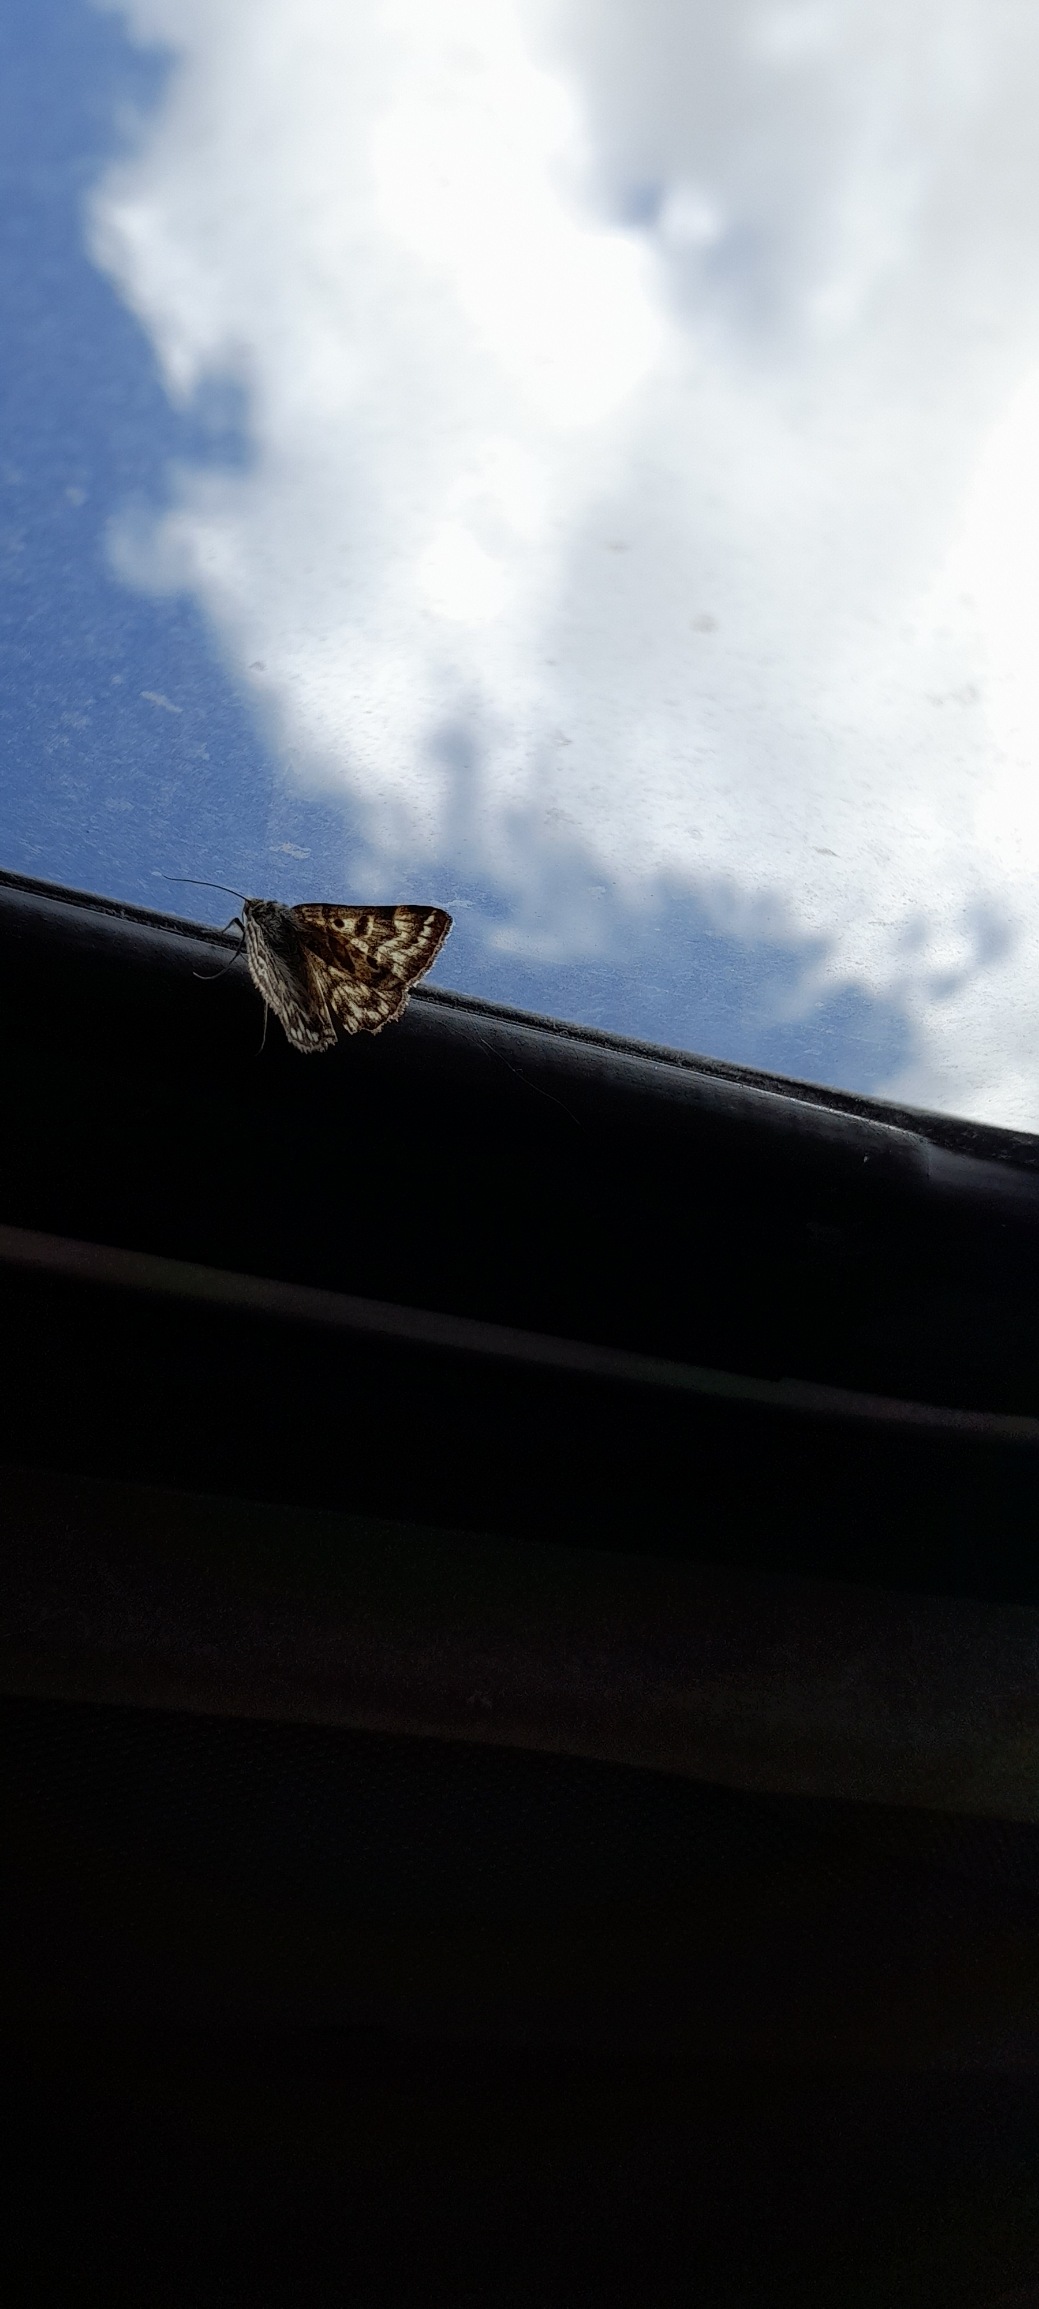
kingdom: Animalia
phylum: Arthropoda
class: Insecta
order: Lepidoptera
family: Erebidae
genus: Callistege
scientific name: Callistege mi
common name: Marmoreret kløverugle
